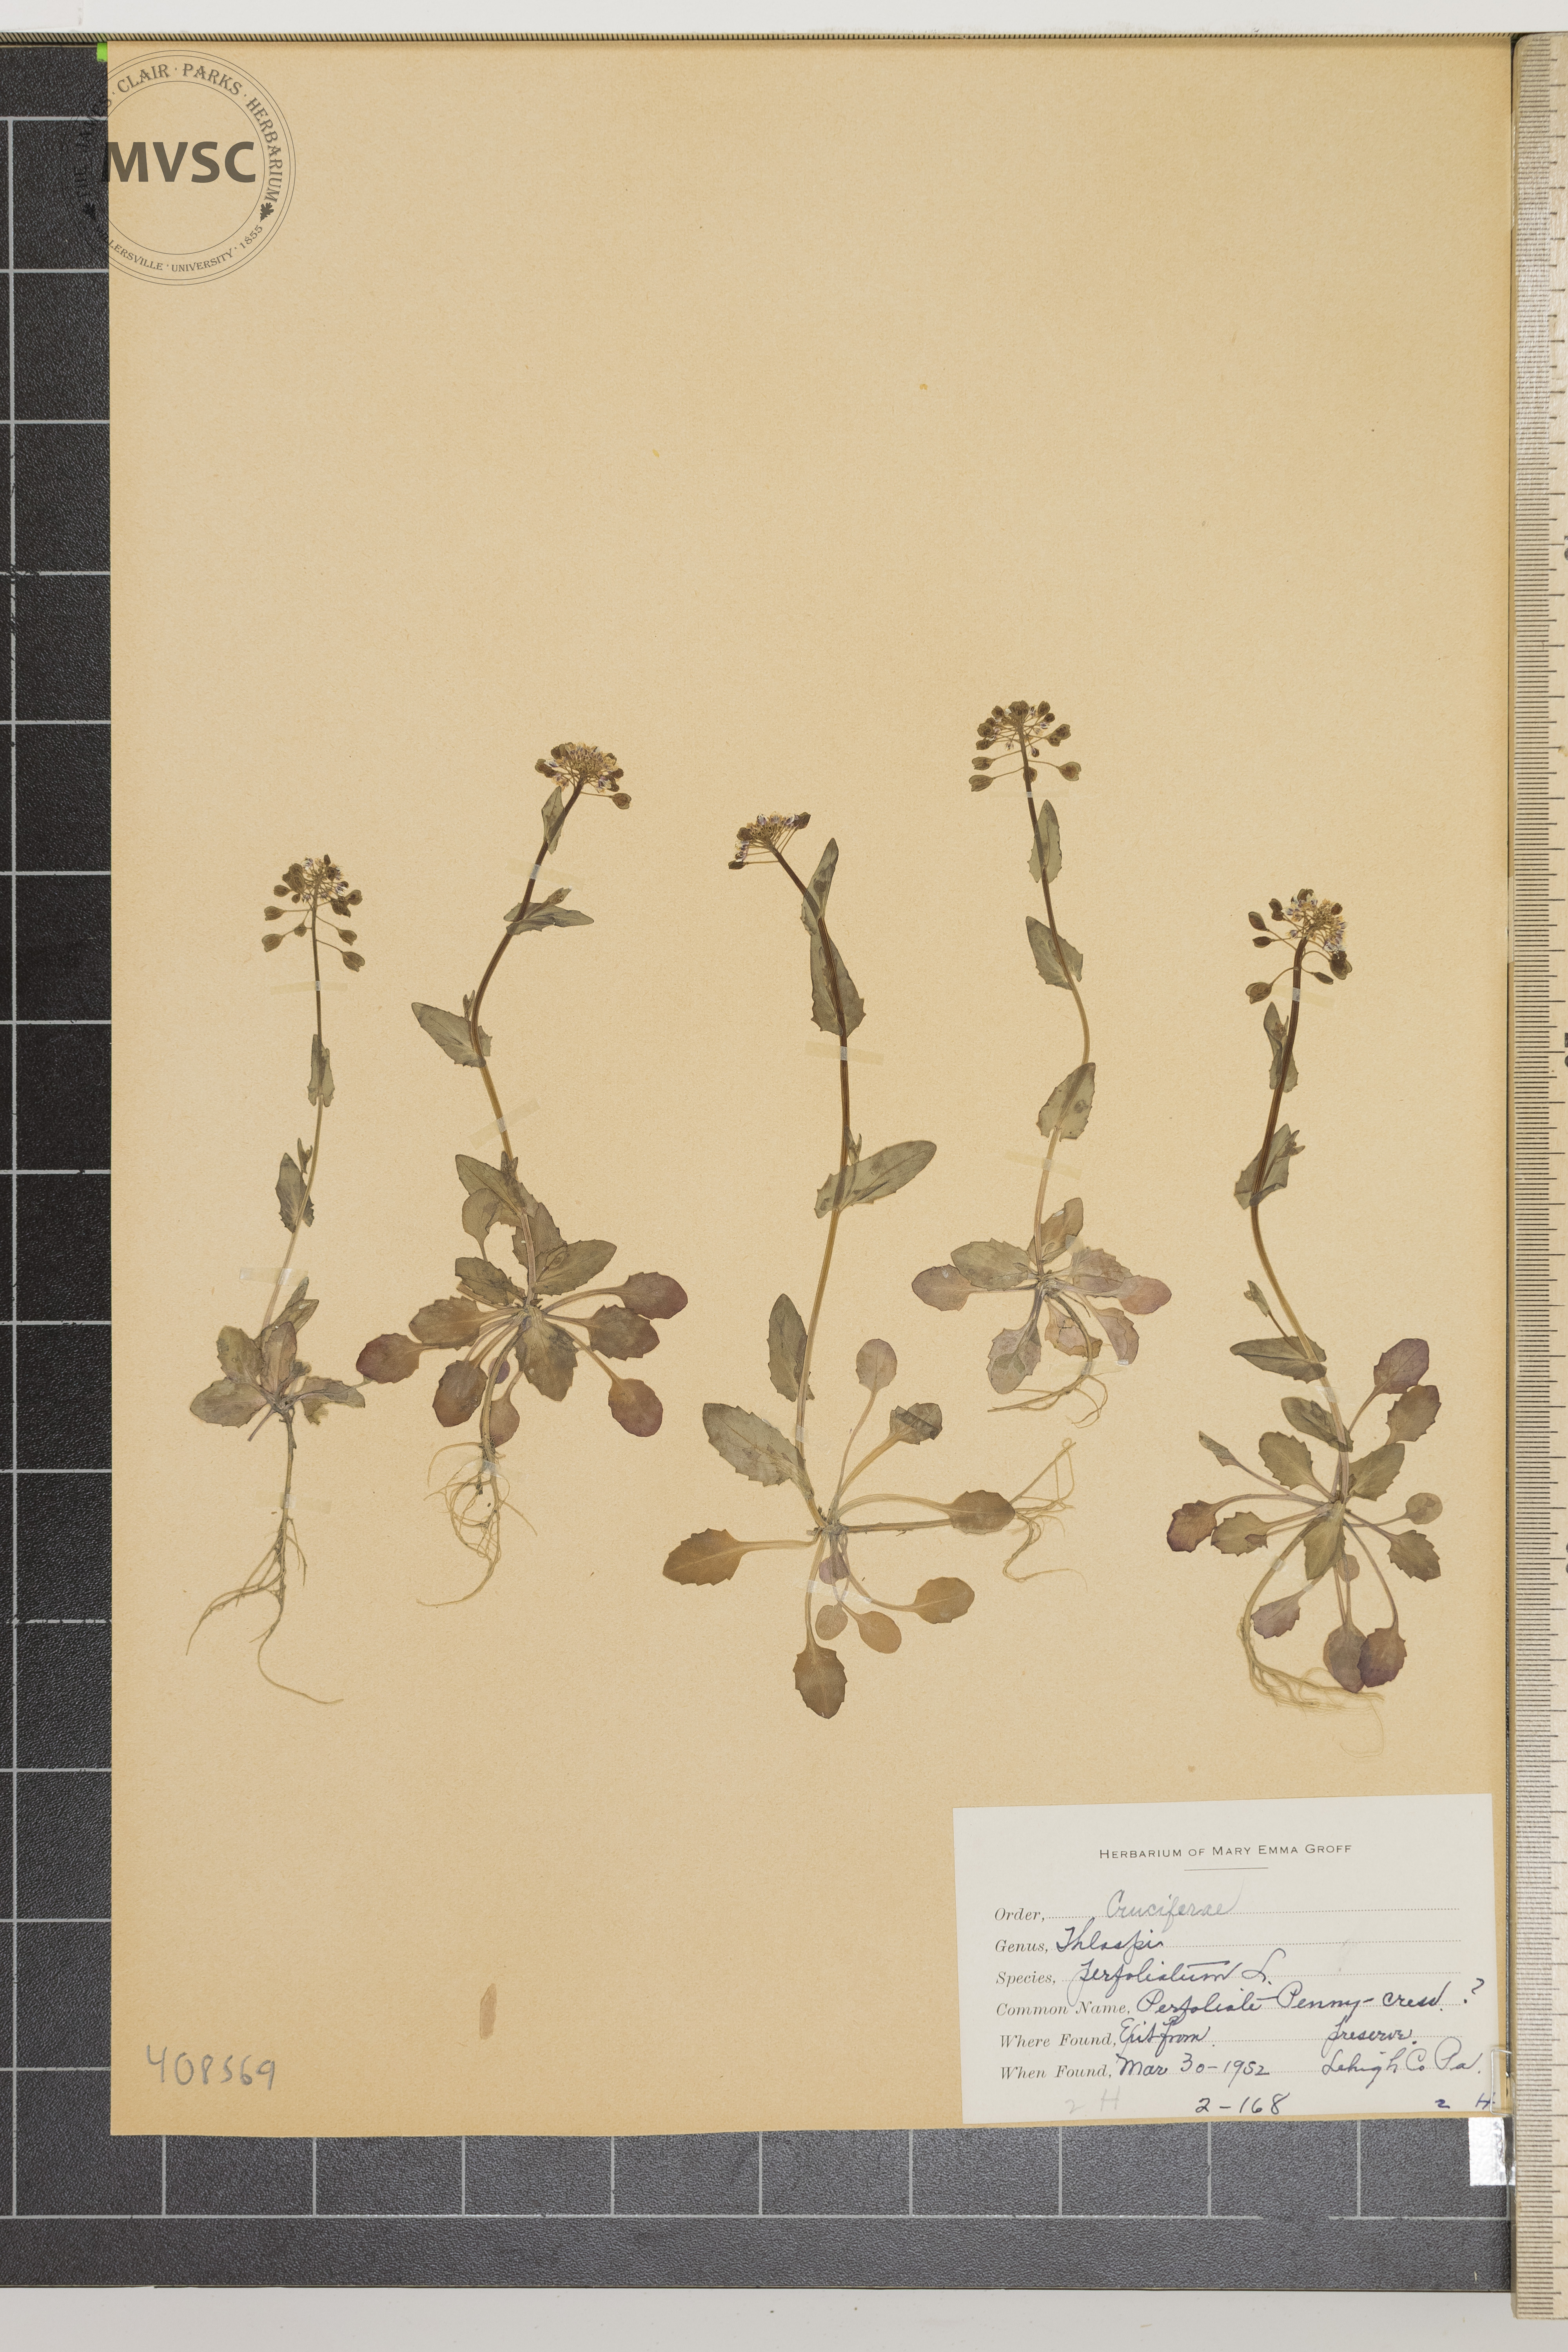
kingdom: Plantae
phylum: Tracheophyta
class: Magnoliopsida
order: Brassicales
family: Brassicaceae
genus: Noccaea
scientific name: Noccaea perfoliata
